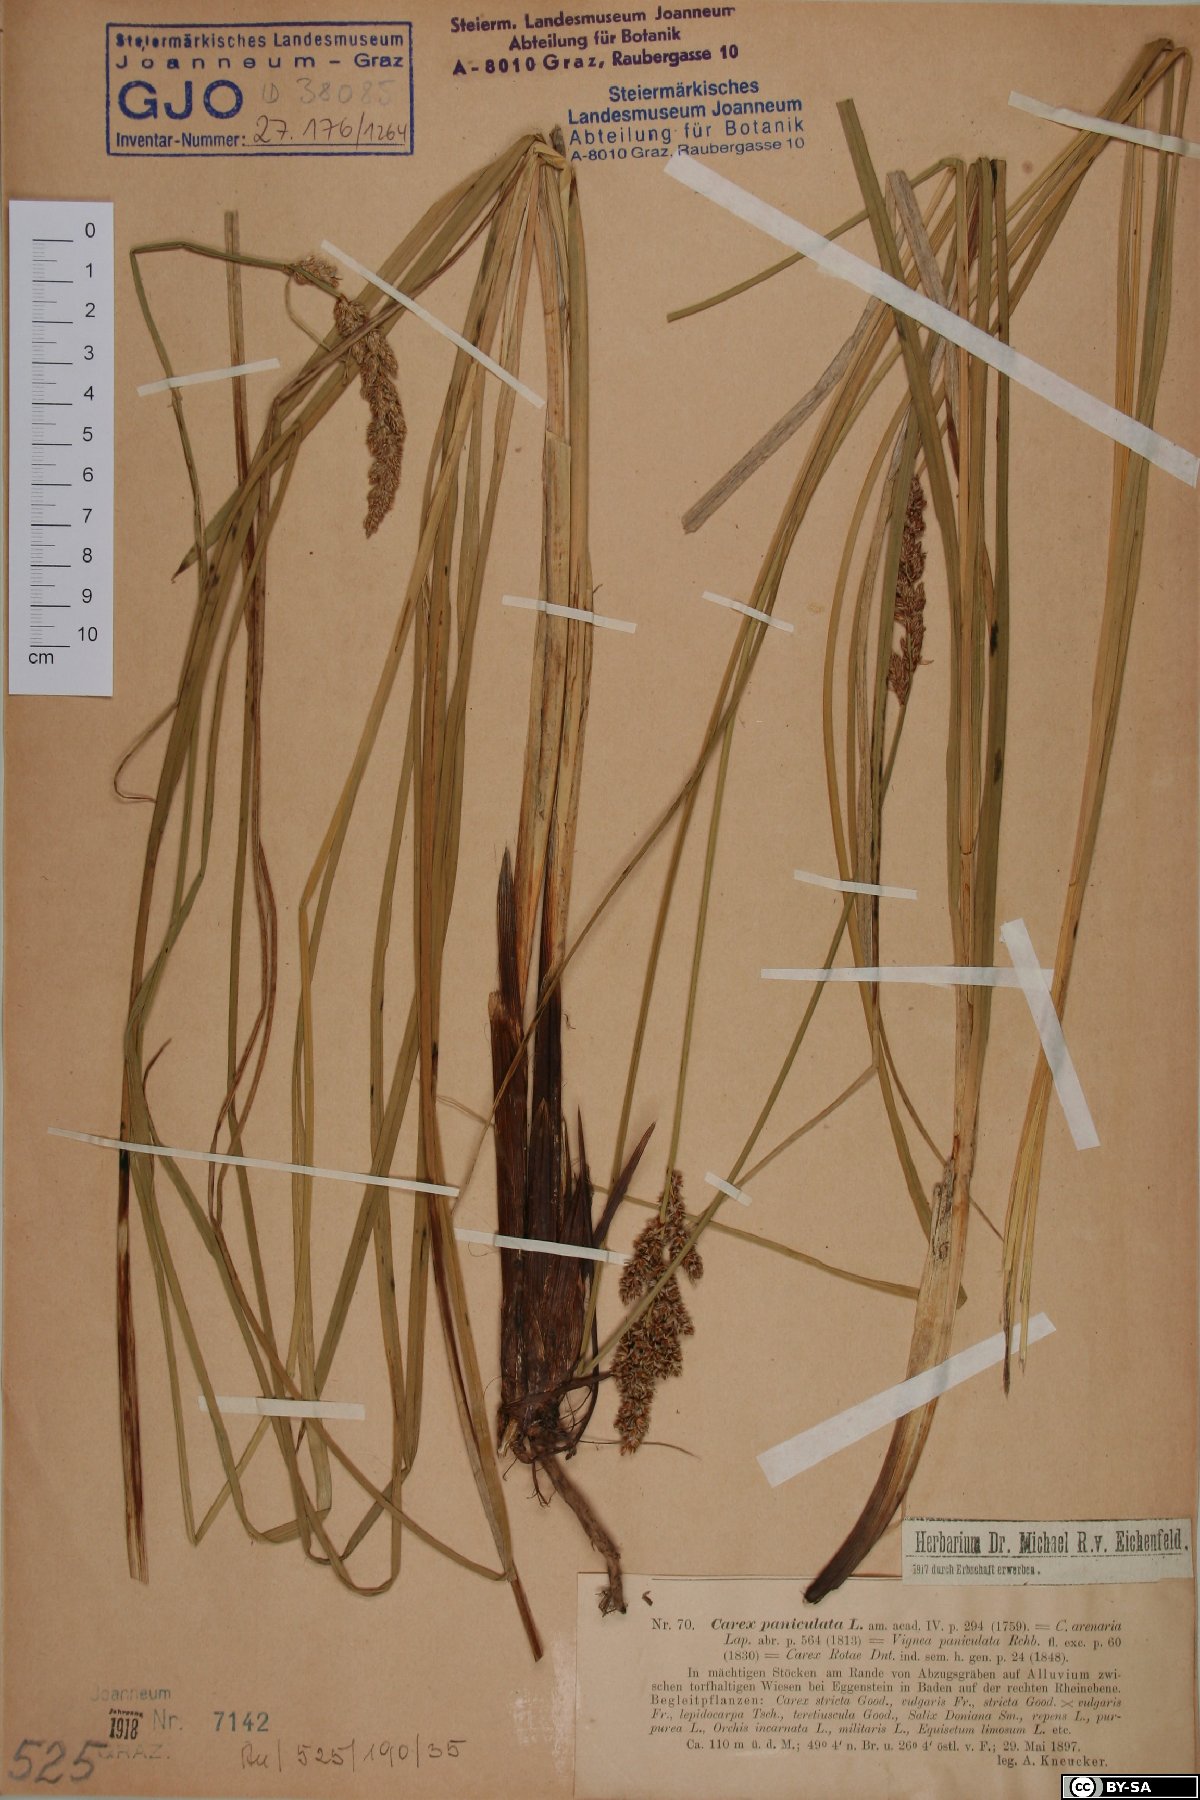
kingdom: Plantae
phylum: Tracheophyta
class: Liliopsida
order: Poales
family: Cyperaceae
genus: Carex
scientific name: Carex paniculata
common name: Greater tussock-sedge
